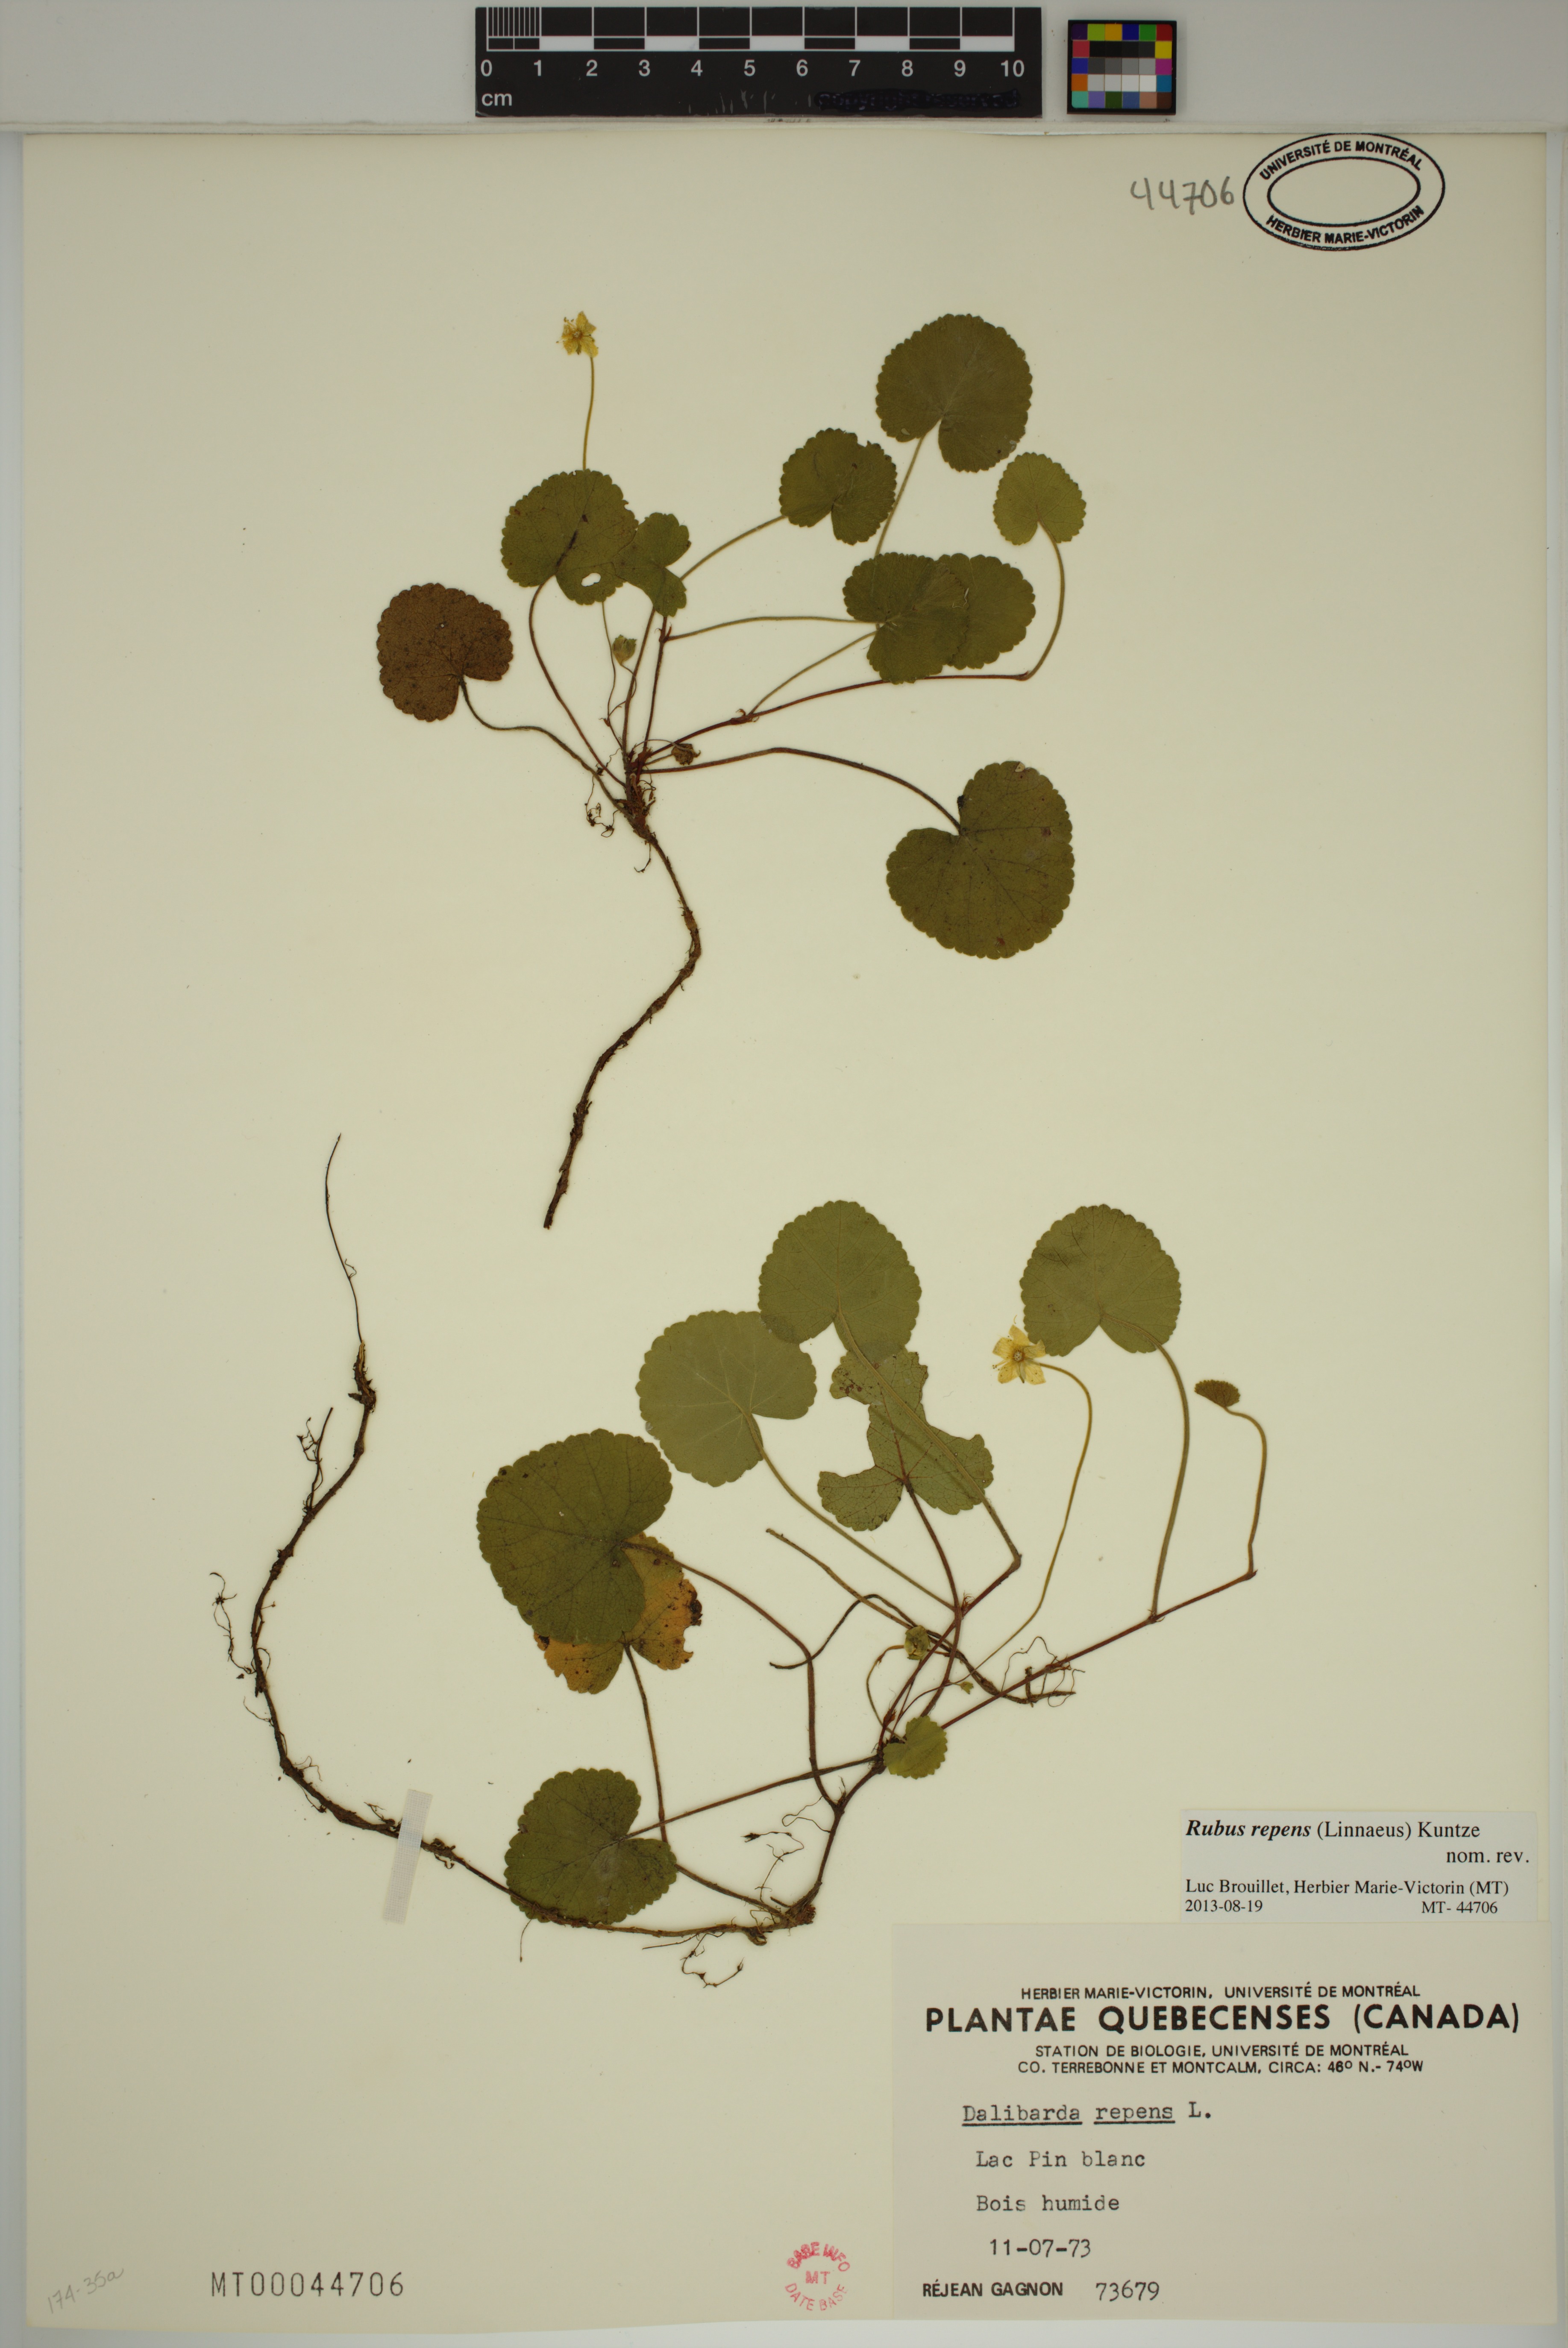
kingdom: Plantae
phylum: Tracheophyta
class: Magnoliopsida
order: Rosales
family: Rosaceae
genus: Dalibarda
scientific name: Dalibarda repens
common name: Dewdrop
